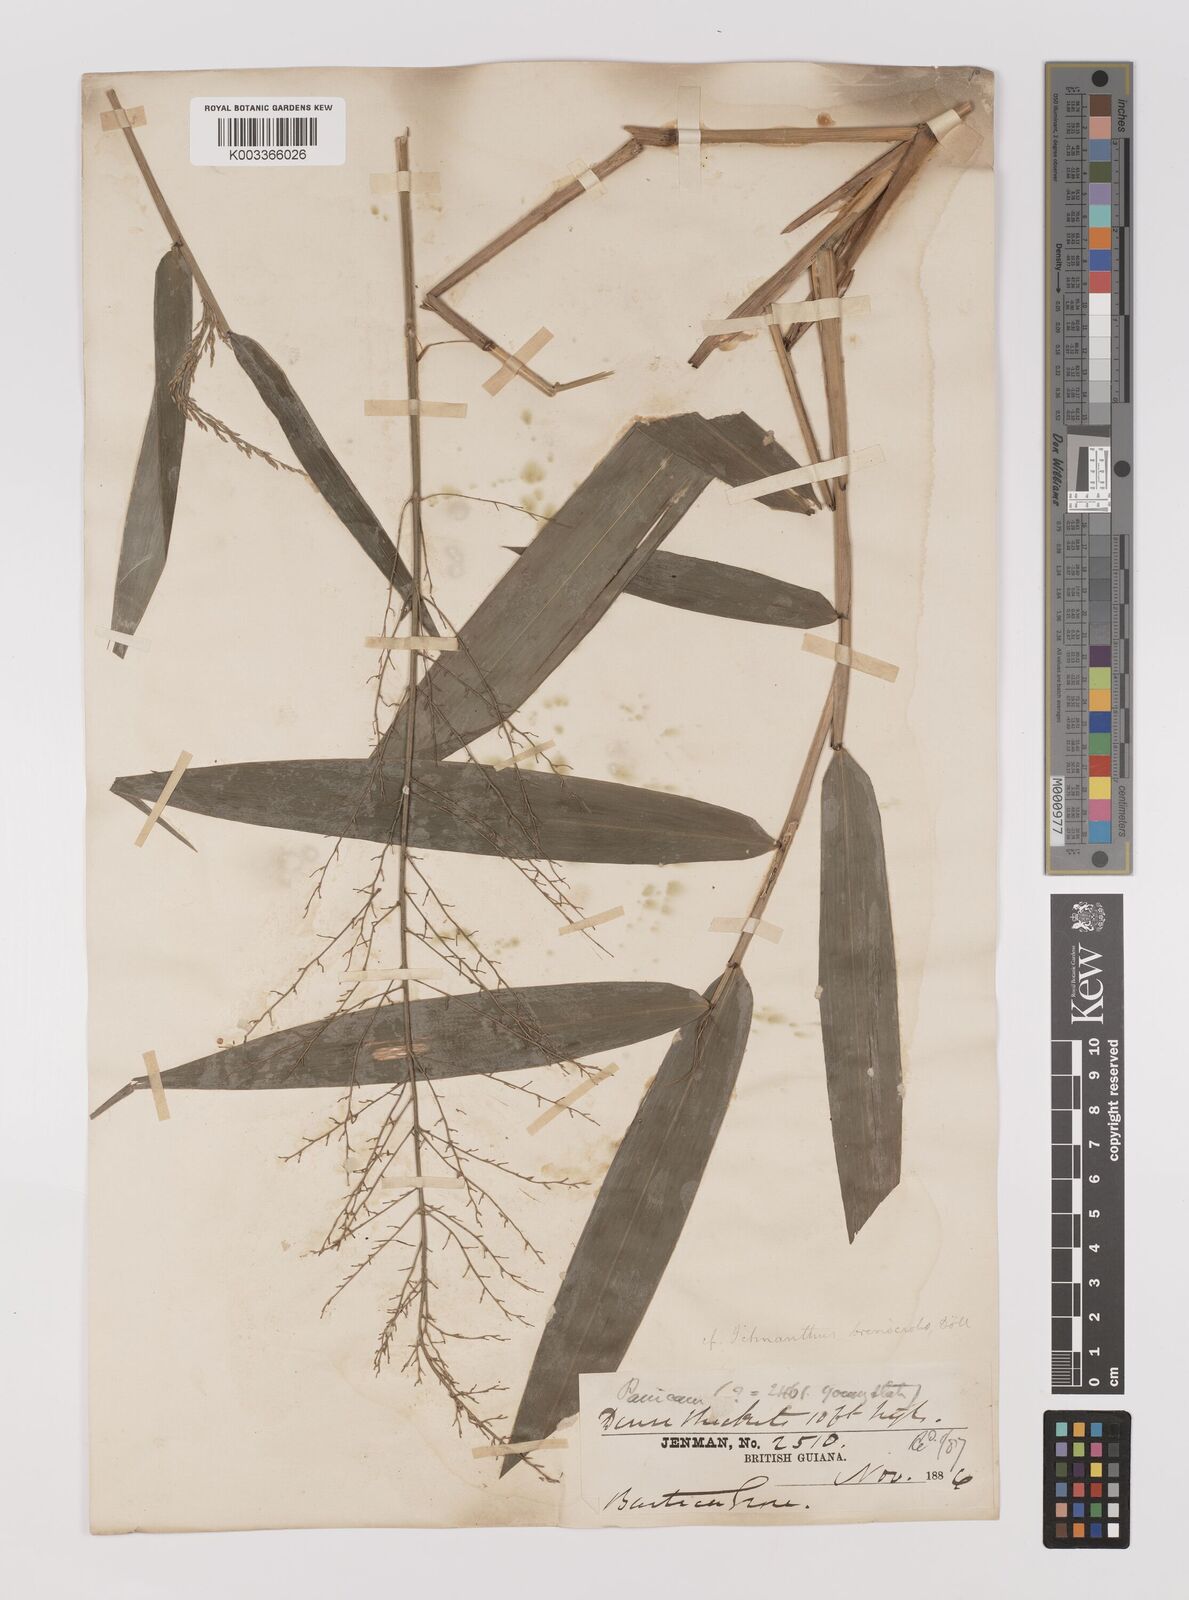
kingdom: Plantae
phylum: Tracheophyta
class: Liliopsida
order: Poales
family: Poaceae
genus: Ichnanthus
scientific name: Ichnanthus breviscrobs
